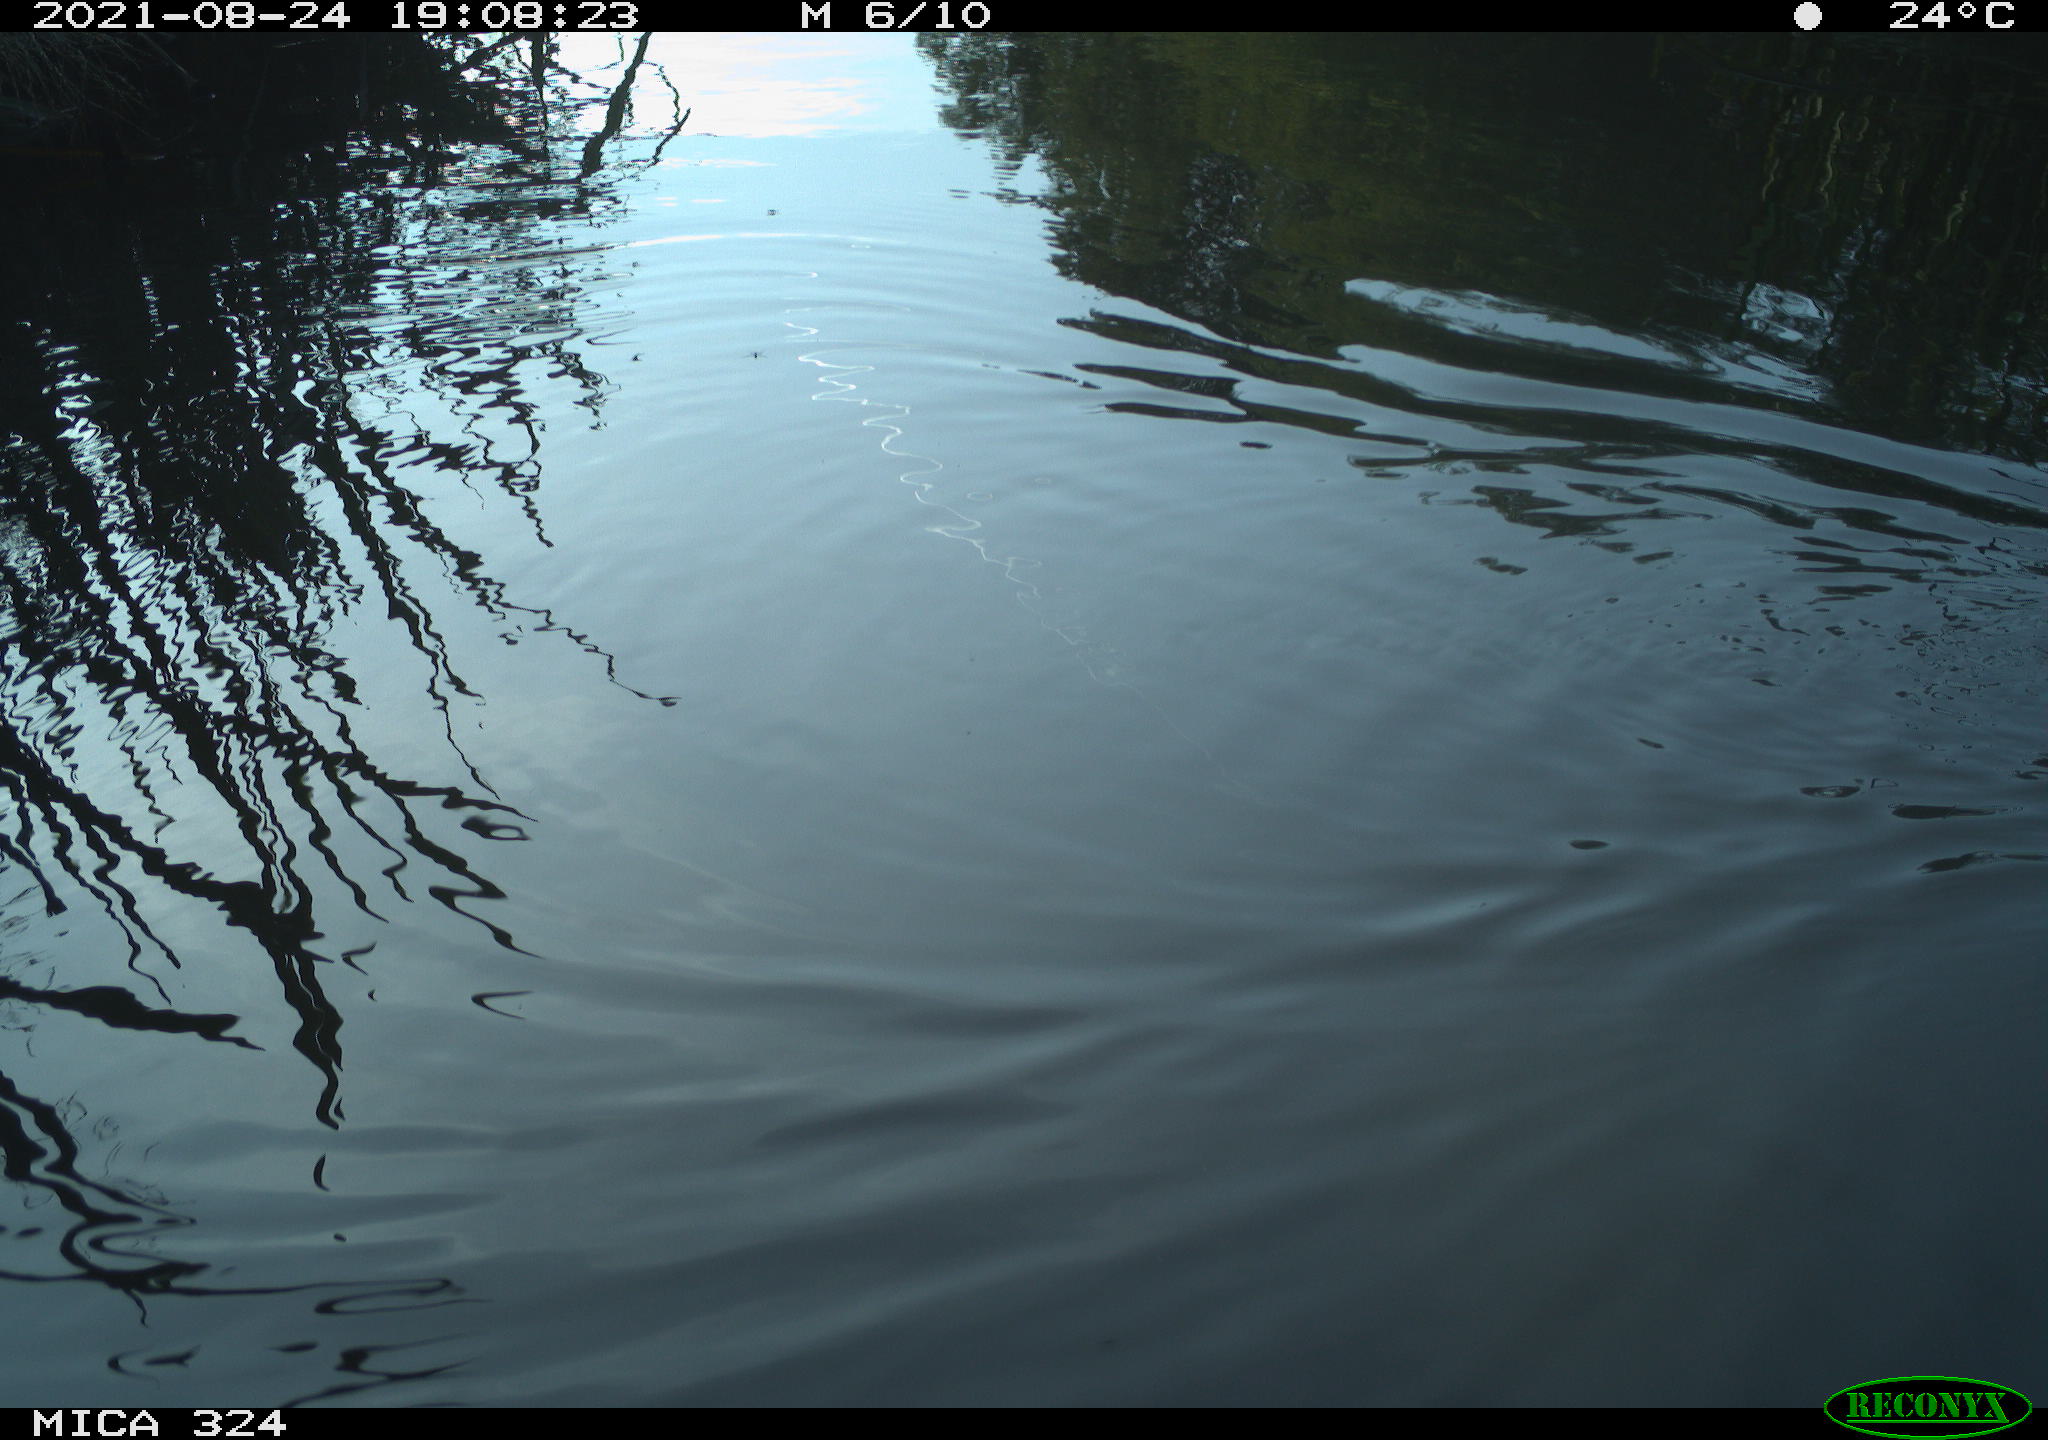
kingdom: Animalia
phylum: Chordata
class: Aves
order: Gruiformes
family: Rallidae
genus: Gallinula
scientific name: Gallinula chloropus
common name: Common moorhen
